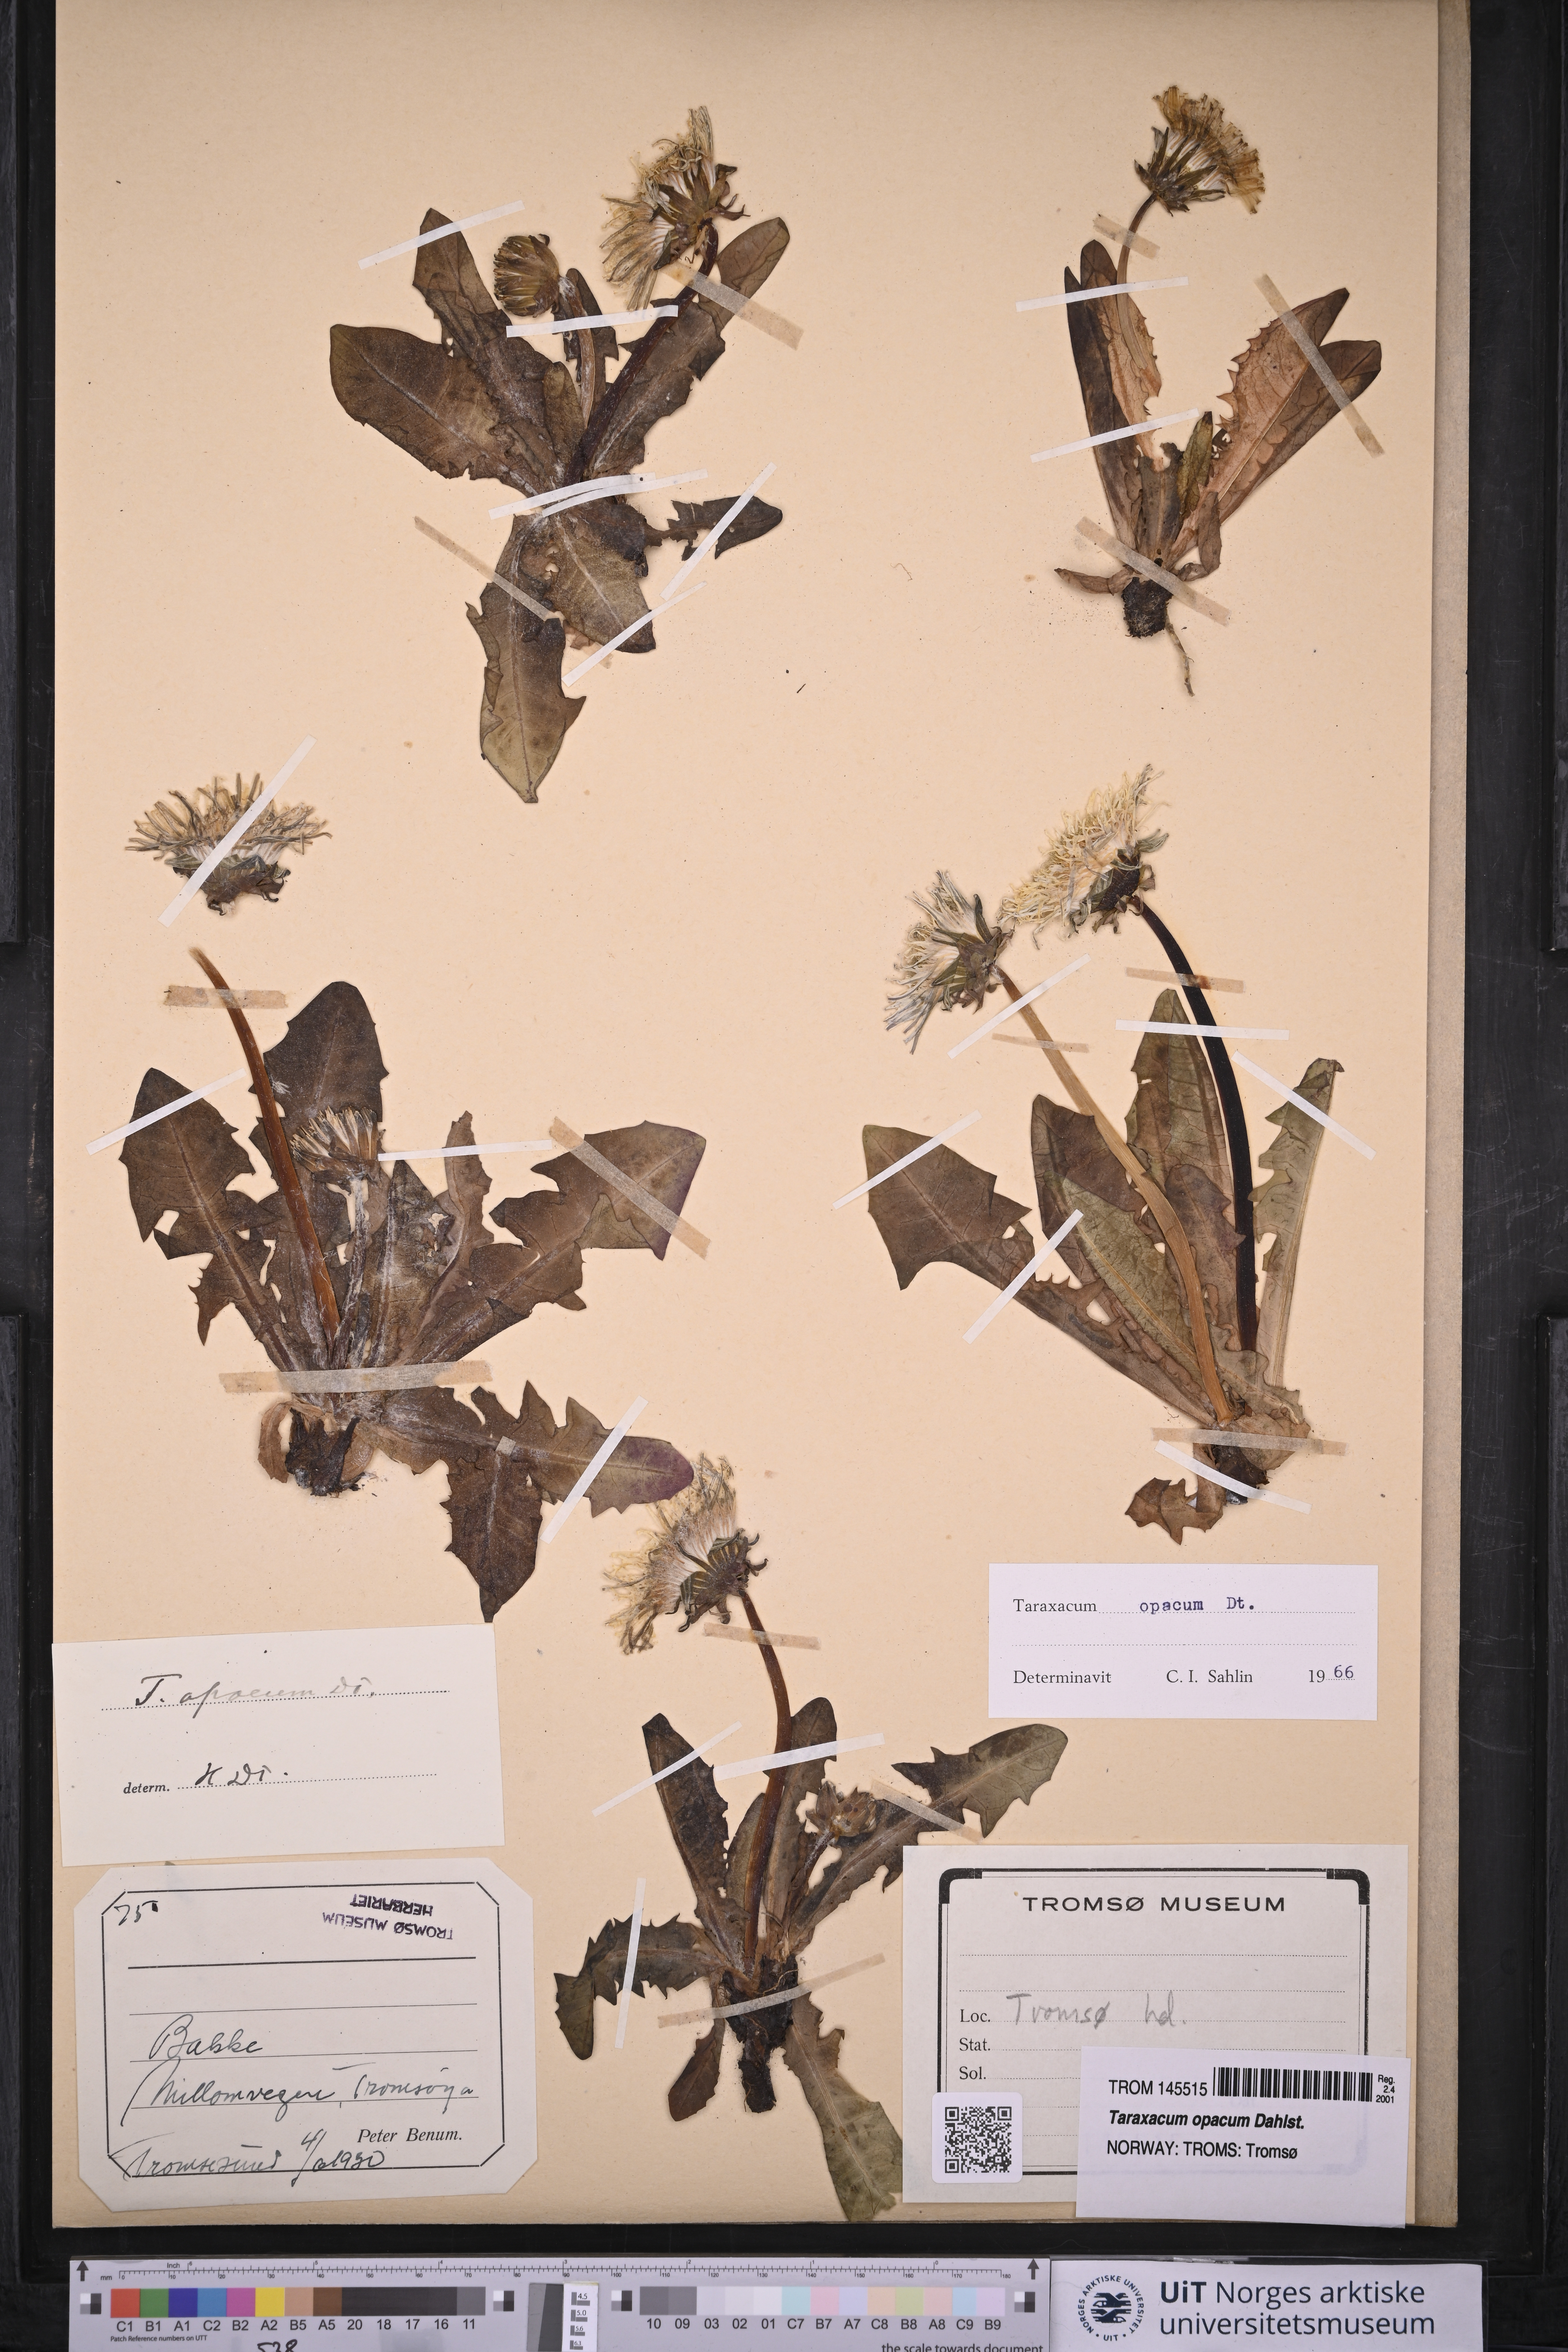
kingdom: Plantae
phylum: Tracheophyta
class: Magnoliopsida
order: Asterales
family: Asteraceae
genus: Taraxacum
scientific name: Taraxacum opacum
